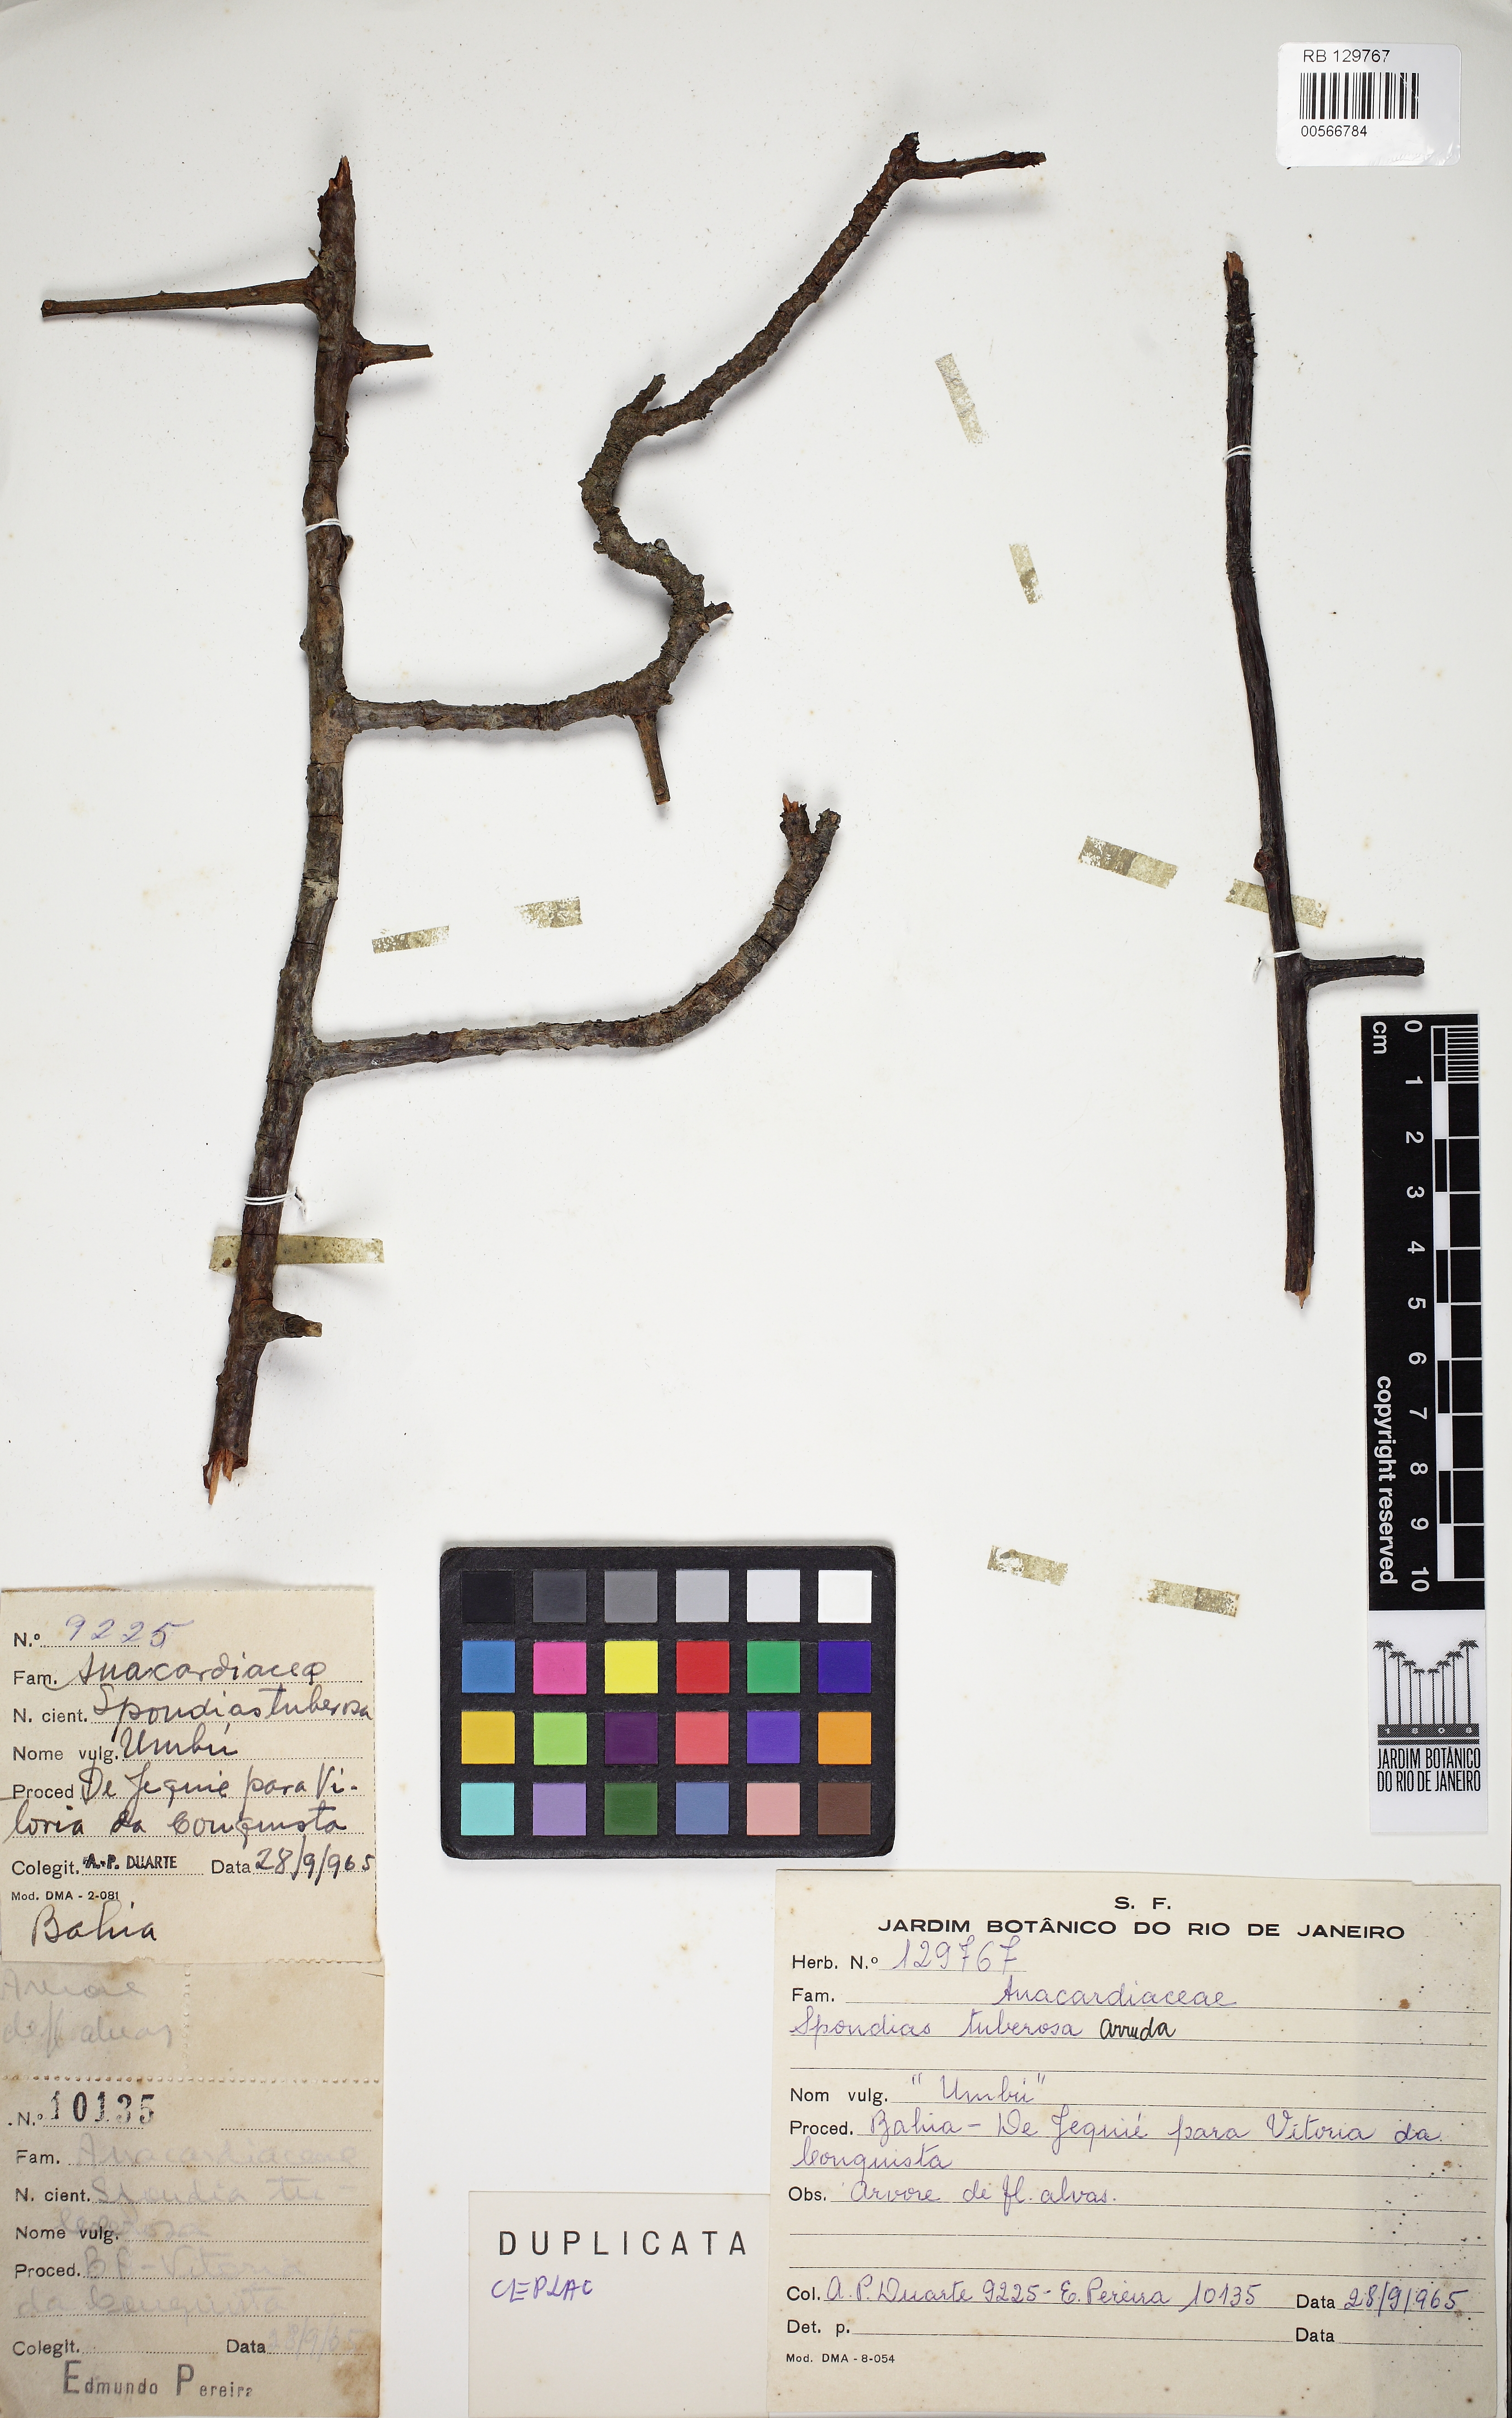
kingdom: Plantae
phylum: Tracheophyta
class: Magnoliopsida
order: Sapindales
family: Anacardiaceae
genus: Spondias
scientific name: Spondias dulcis
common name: Ambarella
